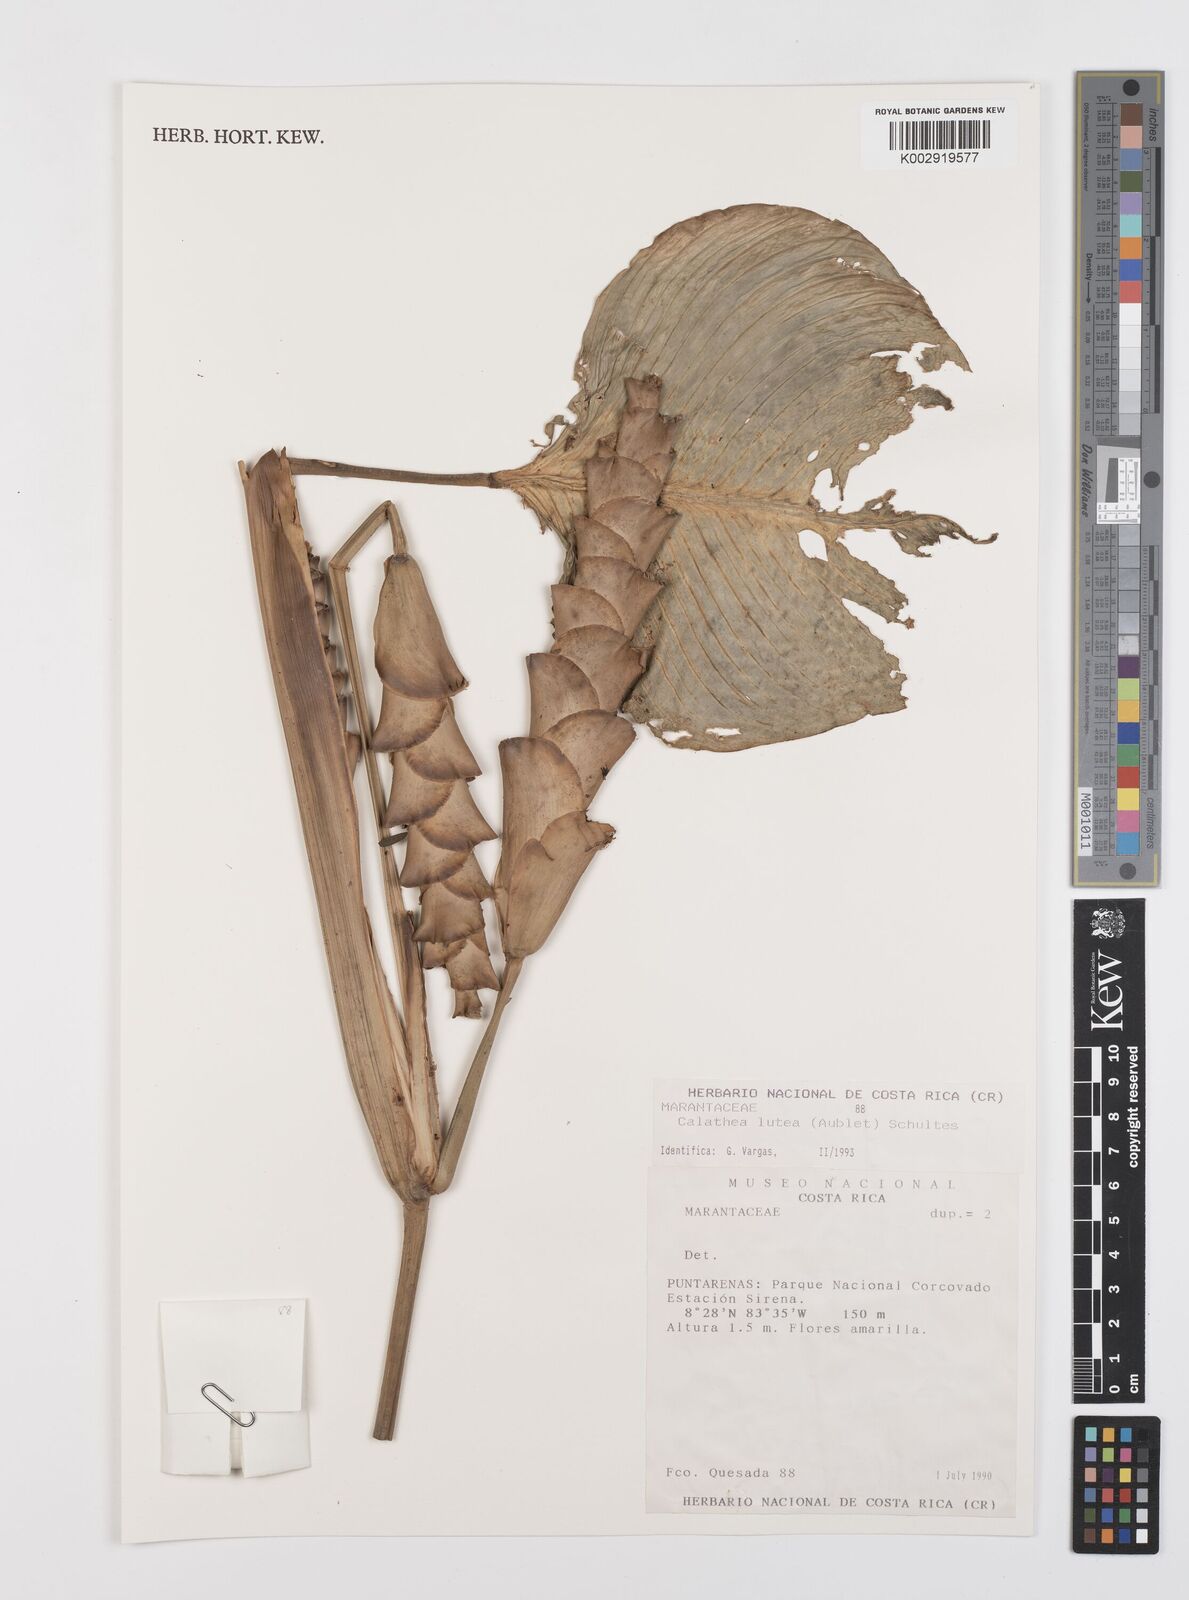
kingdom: Plantae
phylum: Tracheophyta
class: Liliopsida
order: Zingiberales
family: Marantaceae
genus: Calathea
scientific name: Calathea lutea
